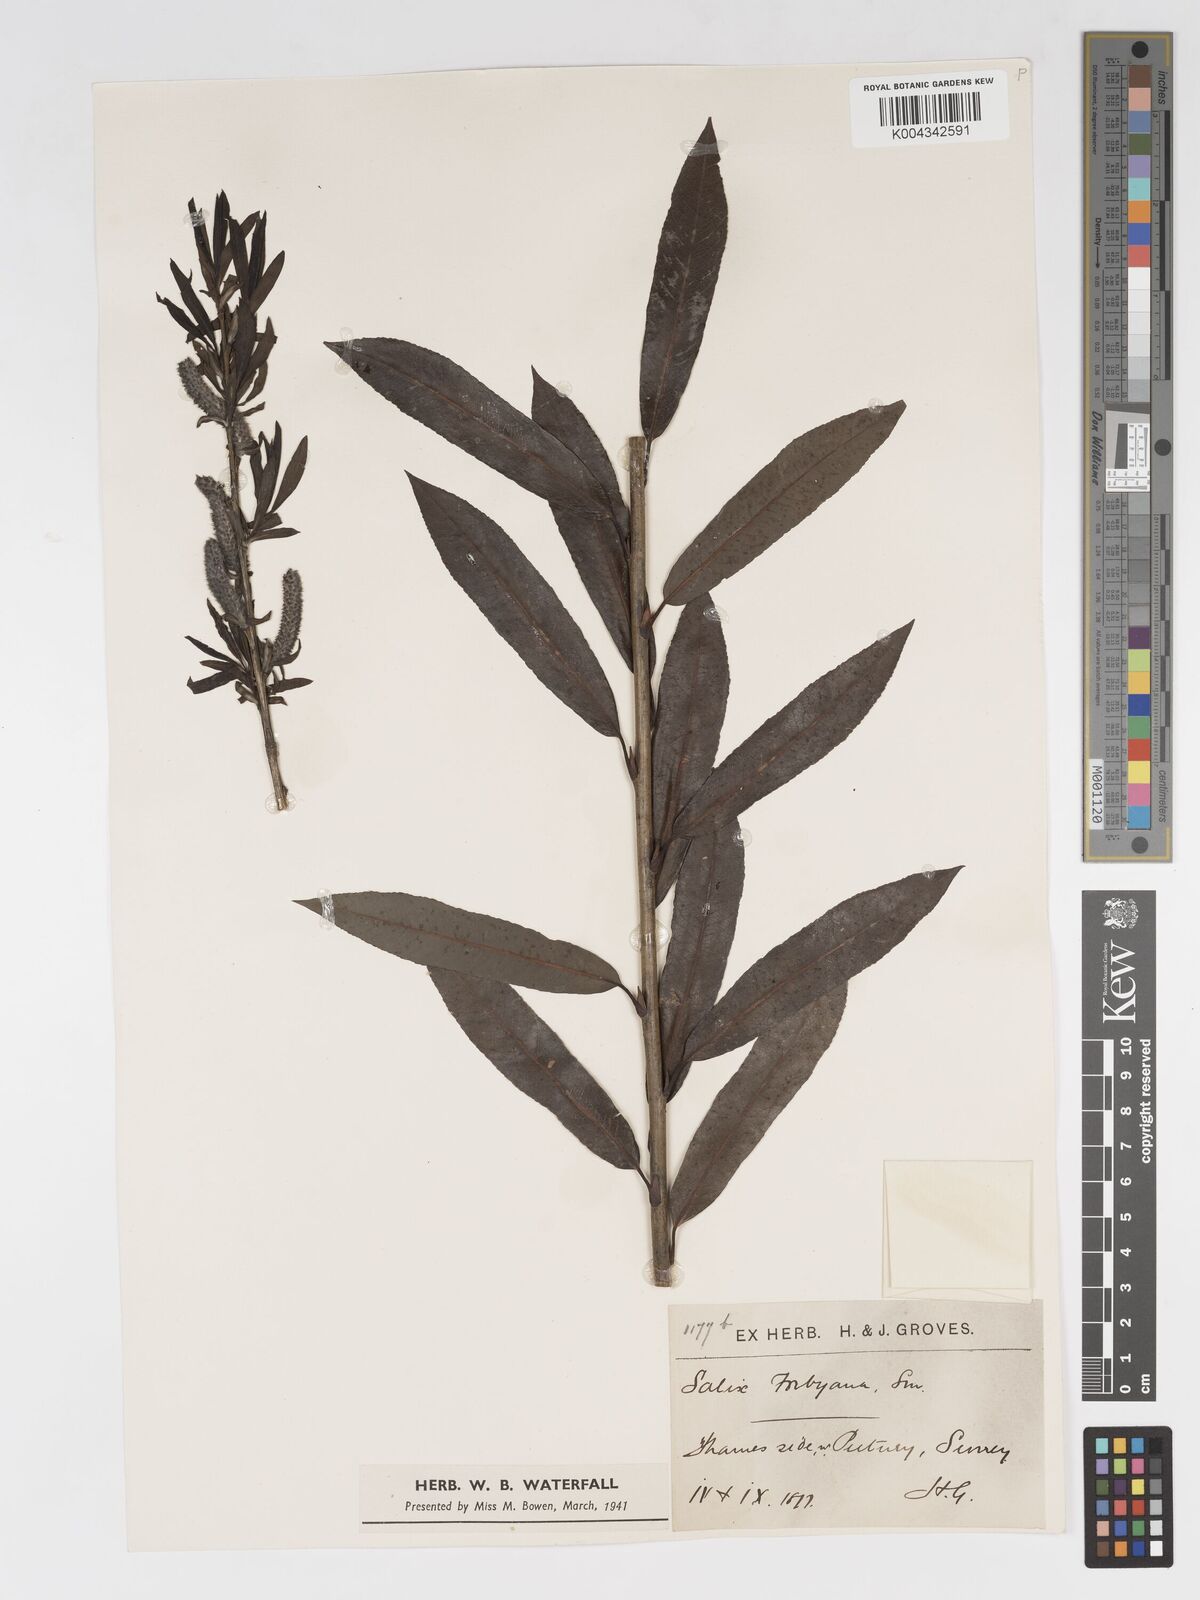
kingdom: Plantae
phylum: Tracheophyta
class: Magnoliopsida
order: Malpighiales
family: Salicaceae
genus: Salix
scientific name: Salix cinerea
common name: Common sallow
